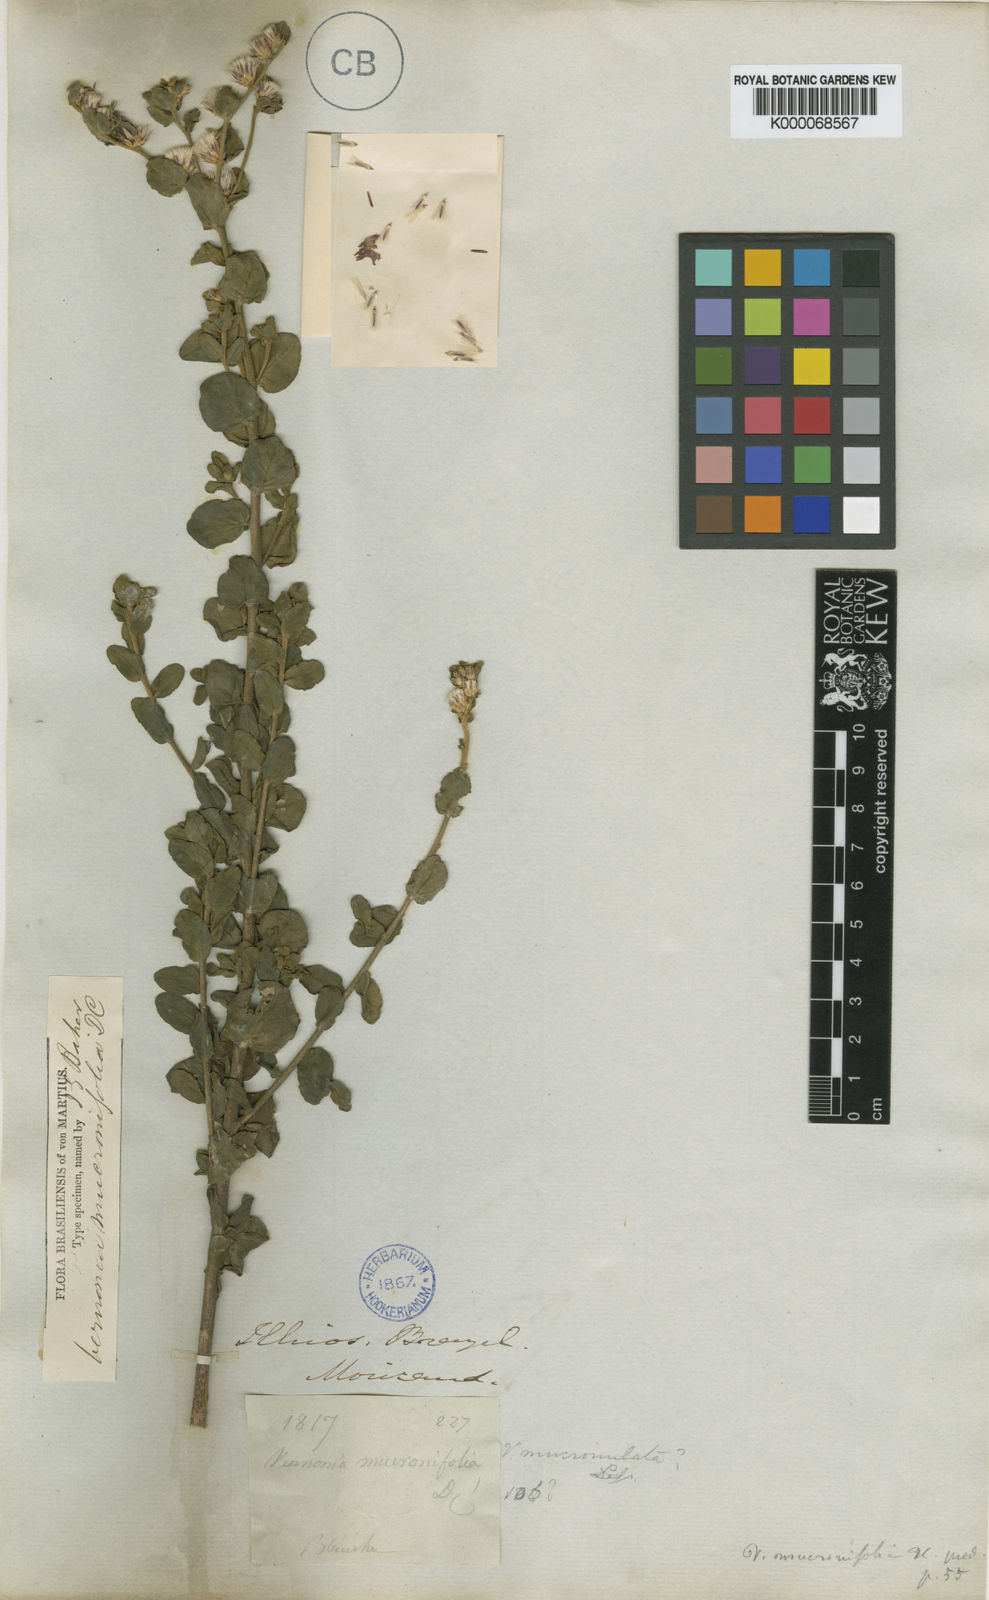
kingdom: Plantae
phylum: Tracheophyta
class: Magnoliopsida
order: Asterales
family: Asteraceae
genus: Lepidaploa
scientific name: Lepidaploa mucronifolia
